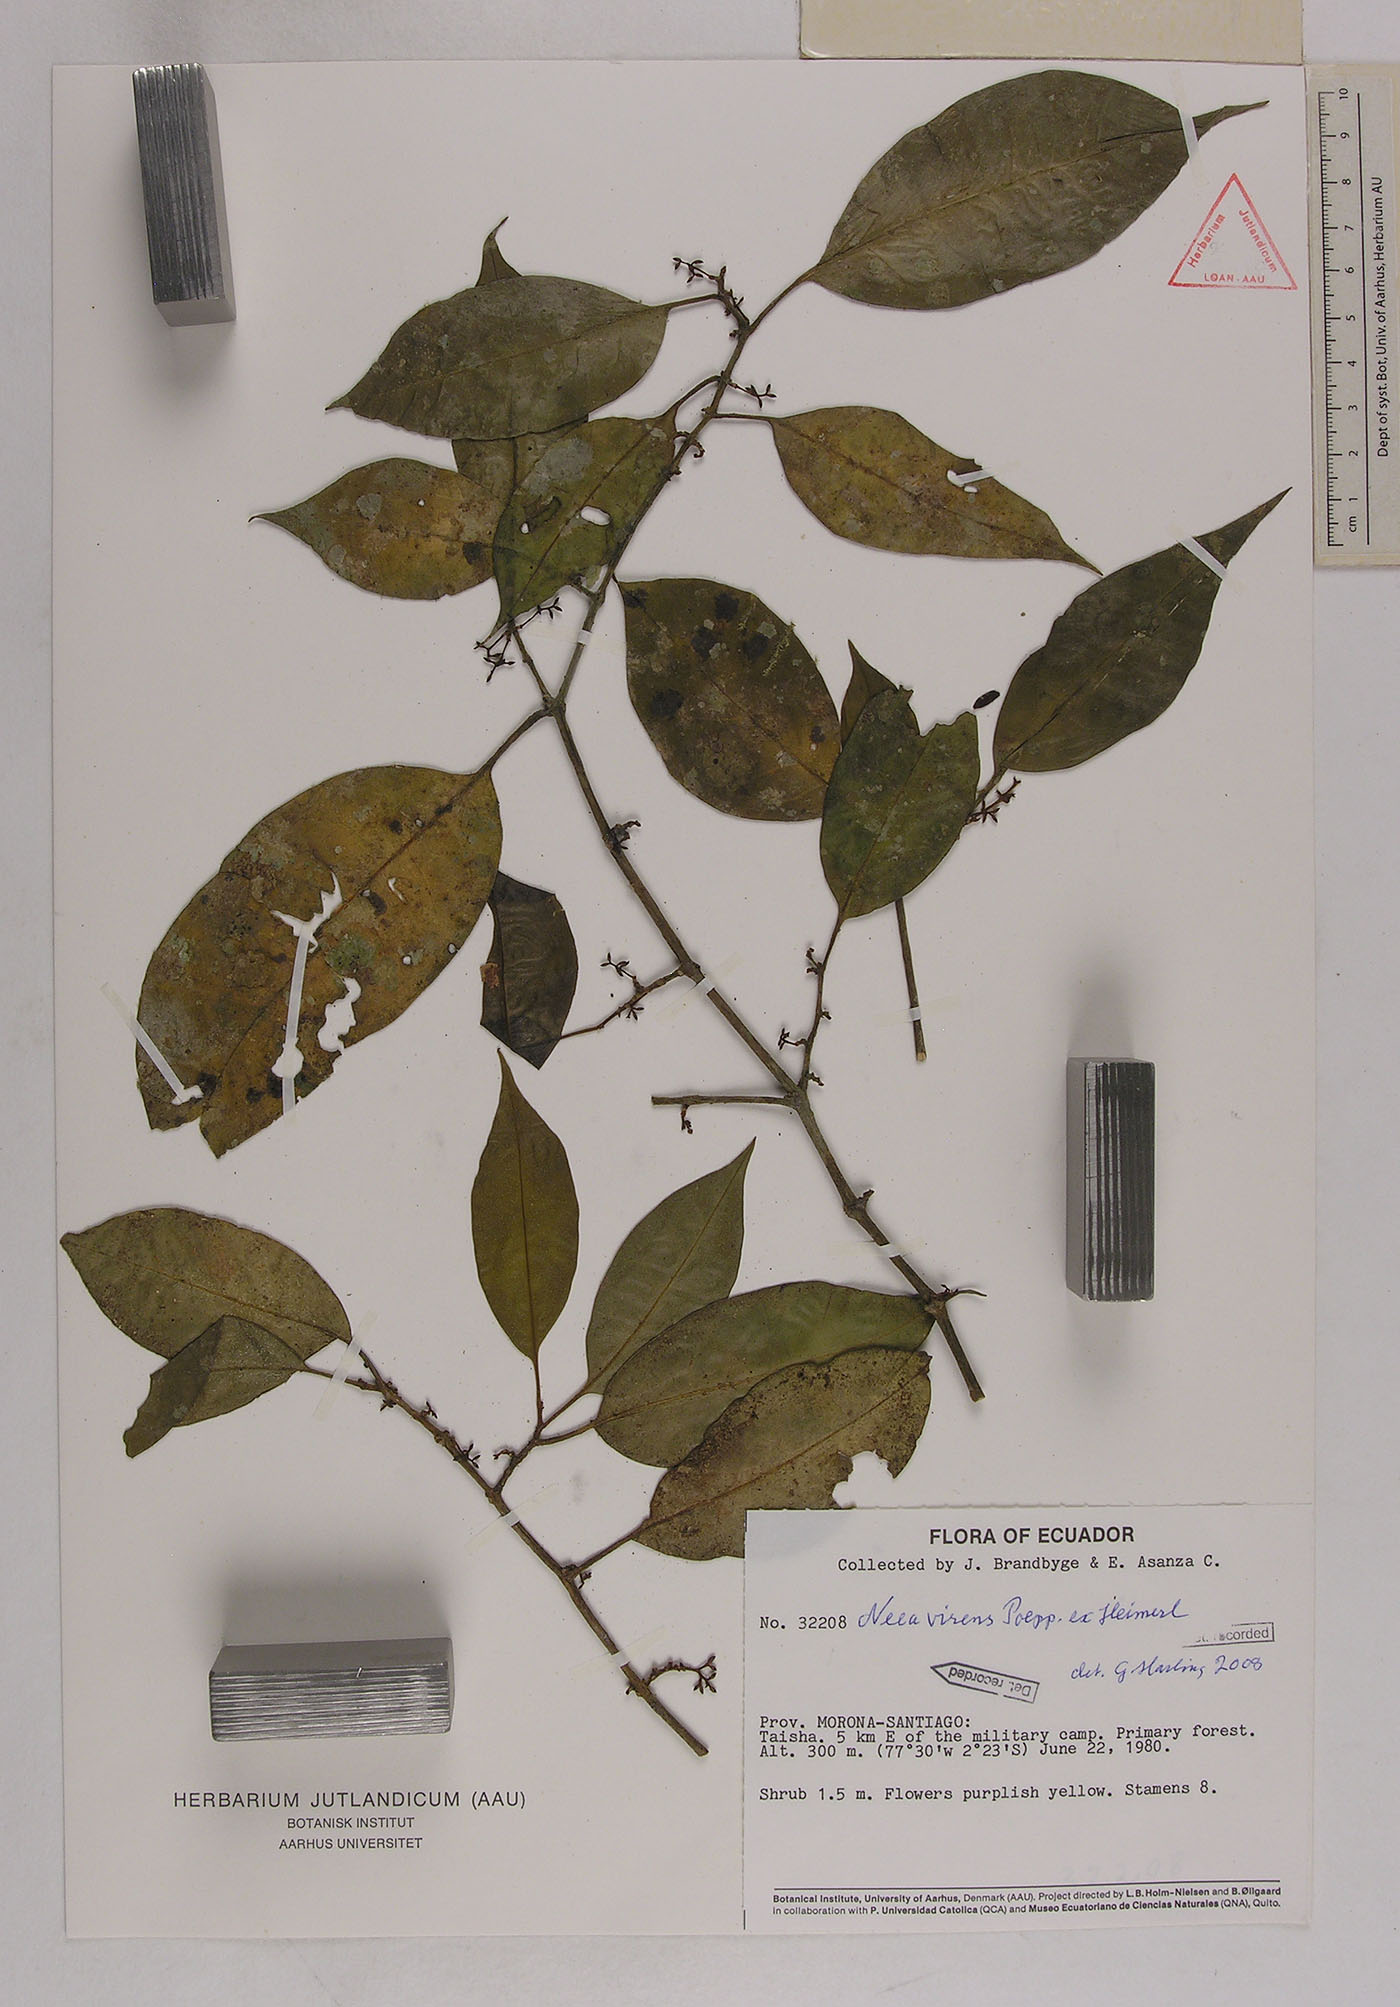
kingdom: Plantae
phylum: Tracheophyta
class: Magnoliopsida
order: Caryophyllales
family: Nyctaginaceae
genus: Neea
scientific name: Neea virens
